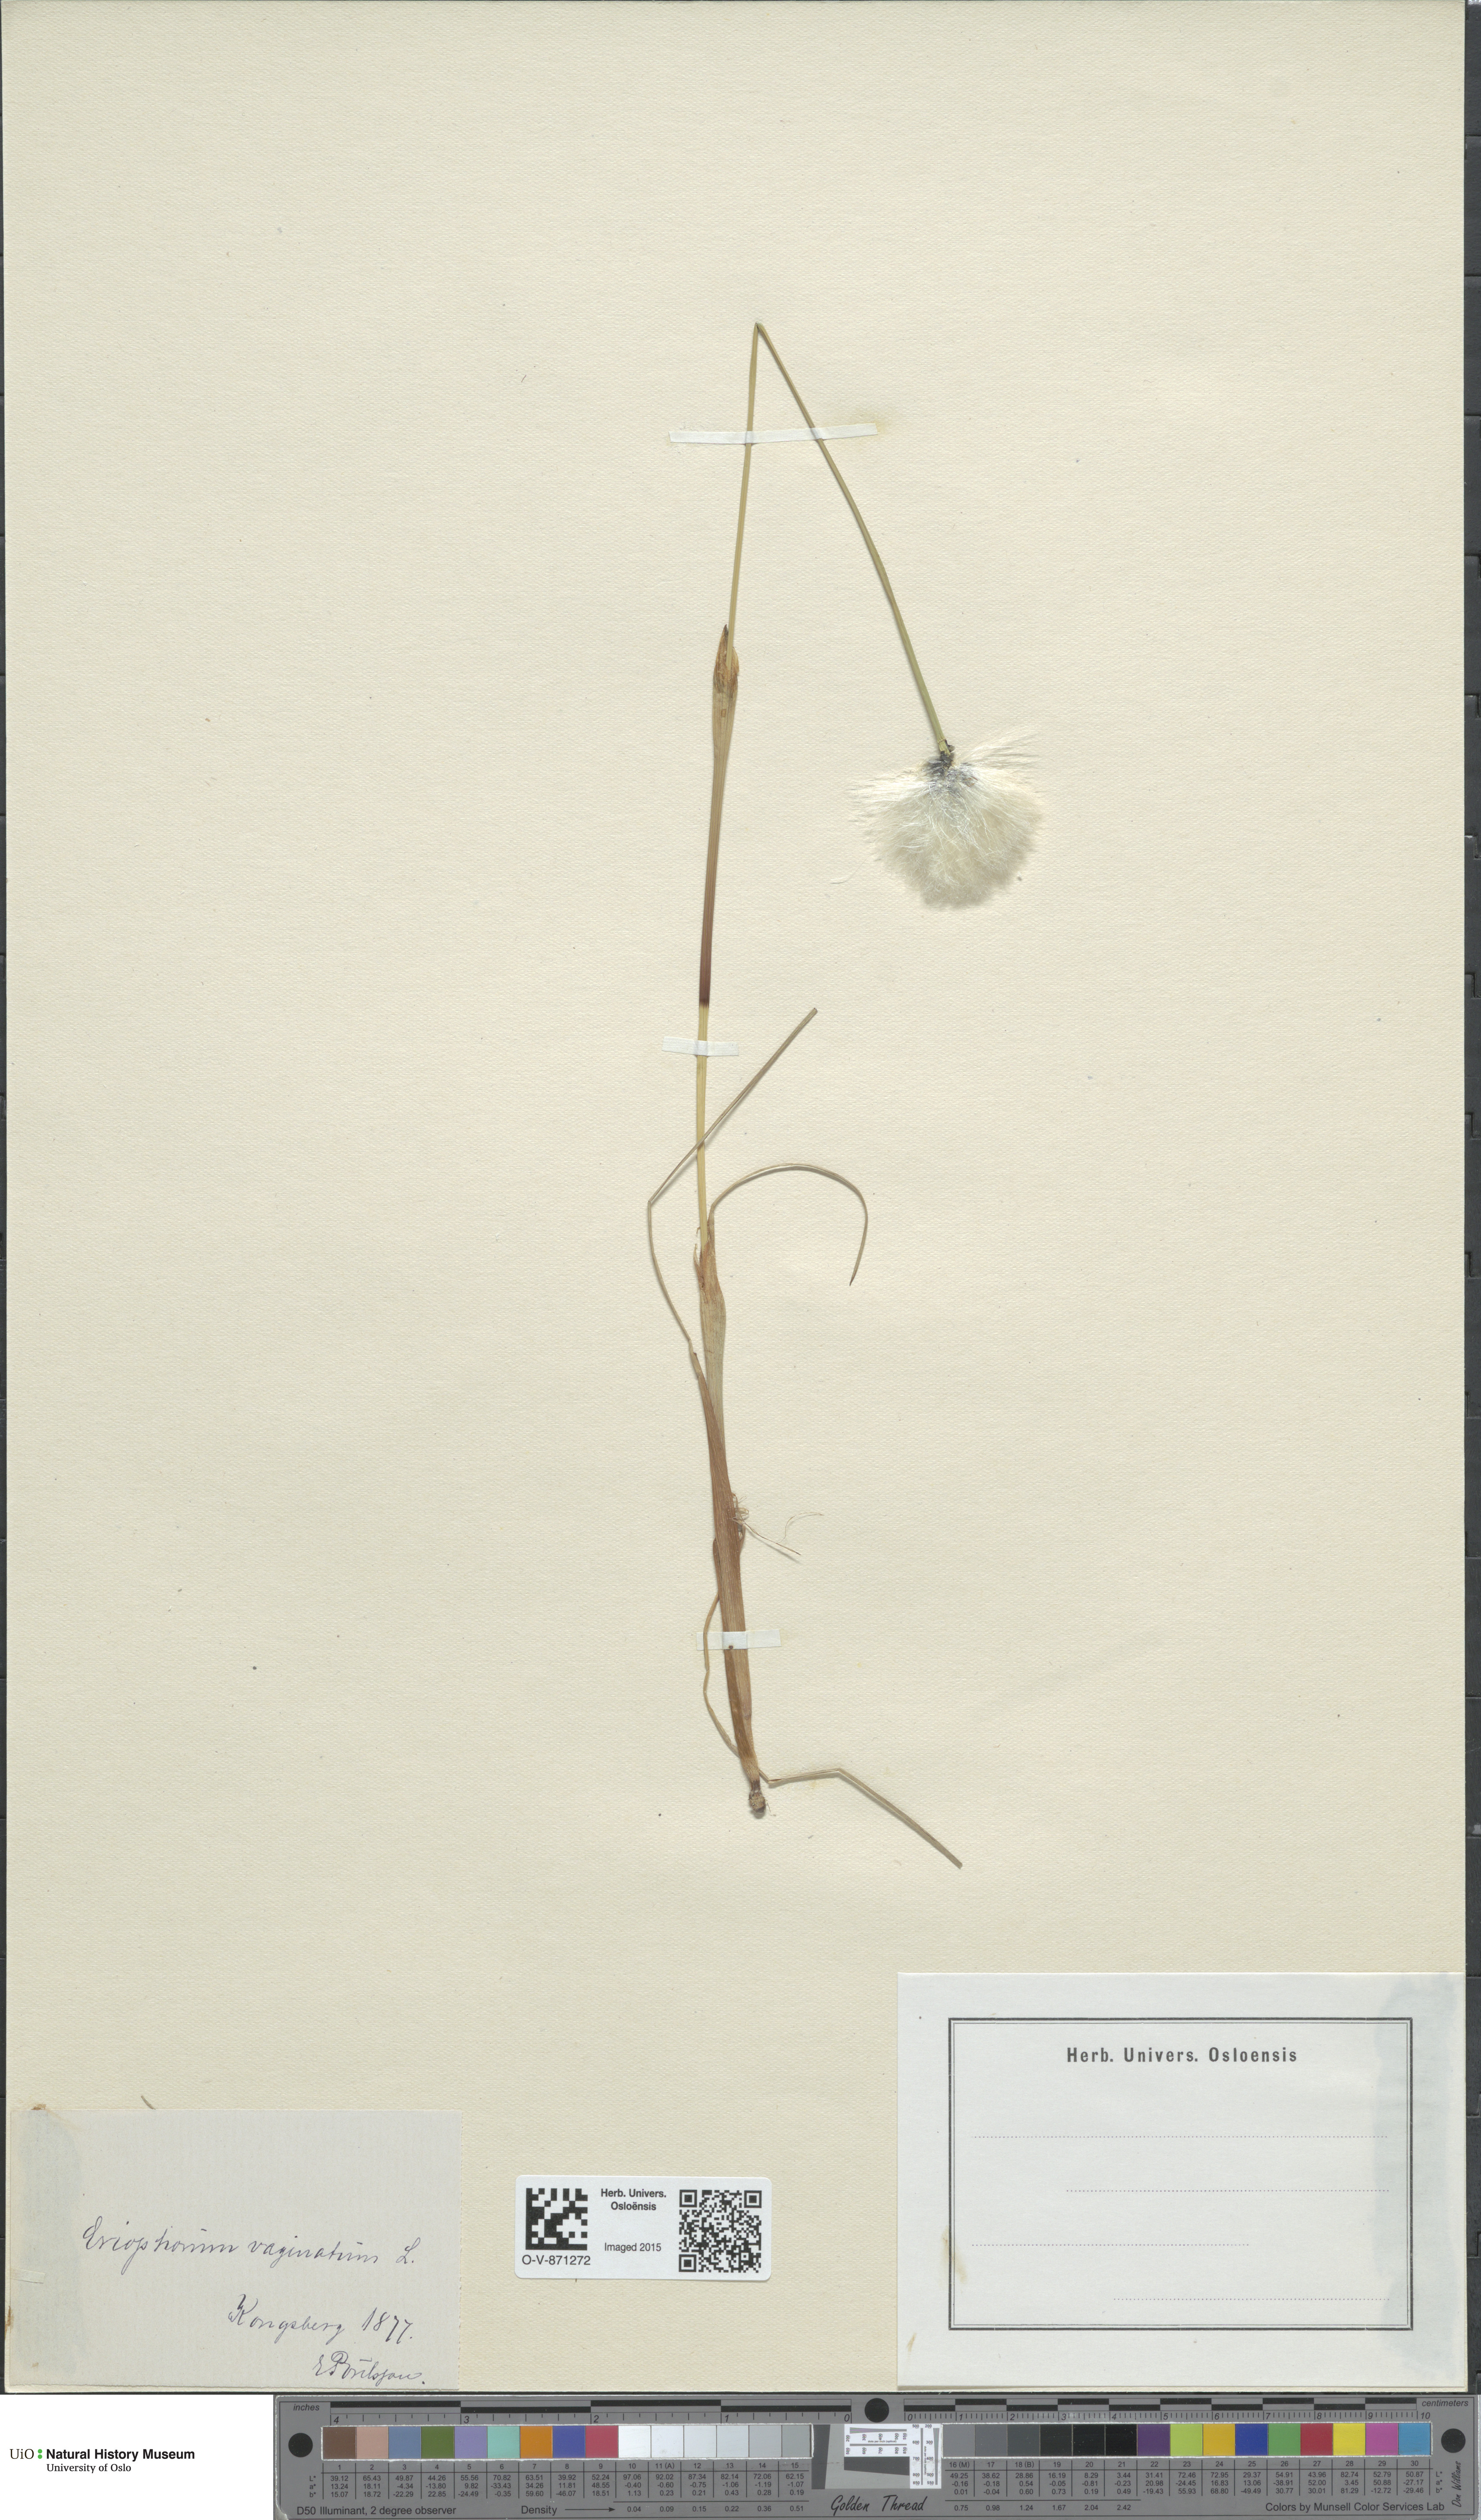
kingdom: Plantae
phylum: Tracheophyta
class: Liliopsida
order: Poales
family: Cyperaceae
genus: Eriophorum
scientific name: Eriophorum vaginatum
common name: Hare's-tail cottongrass
